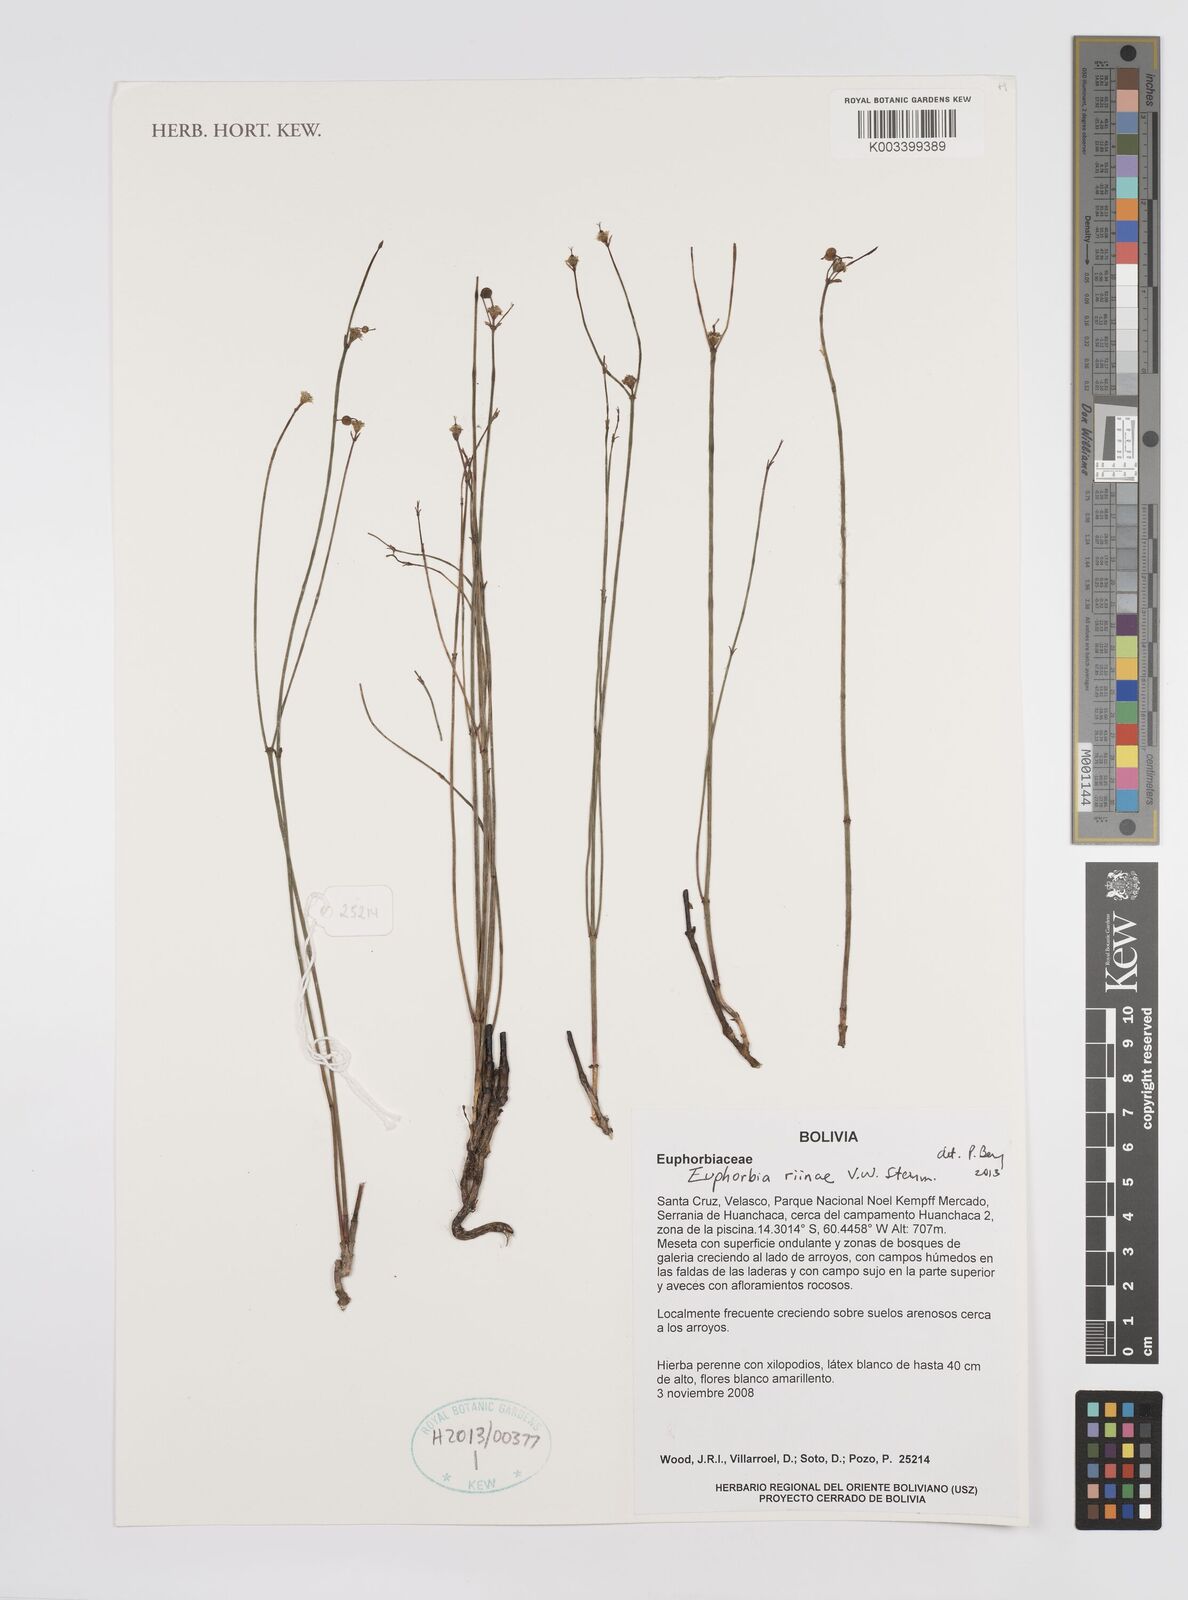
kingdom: Plantae
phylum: Tracheophyta
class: Magnoliopsida
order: Malpighiales
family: Euphorbiaceae
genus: Euphorbia
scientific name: Euphorbia riinae
